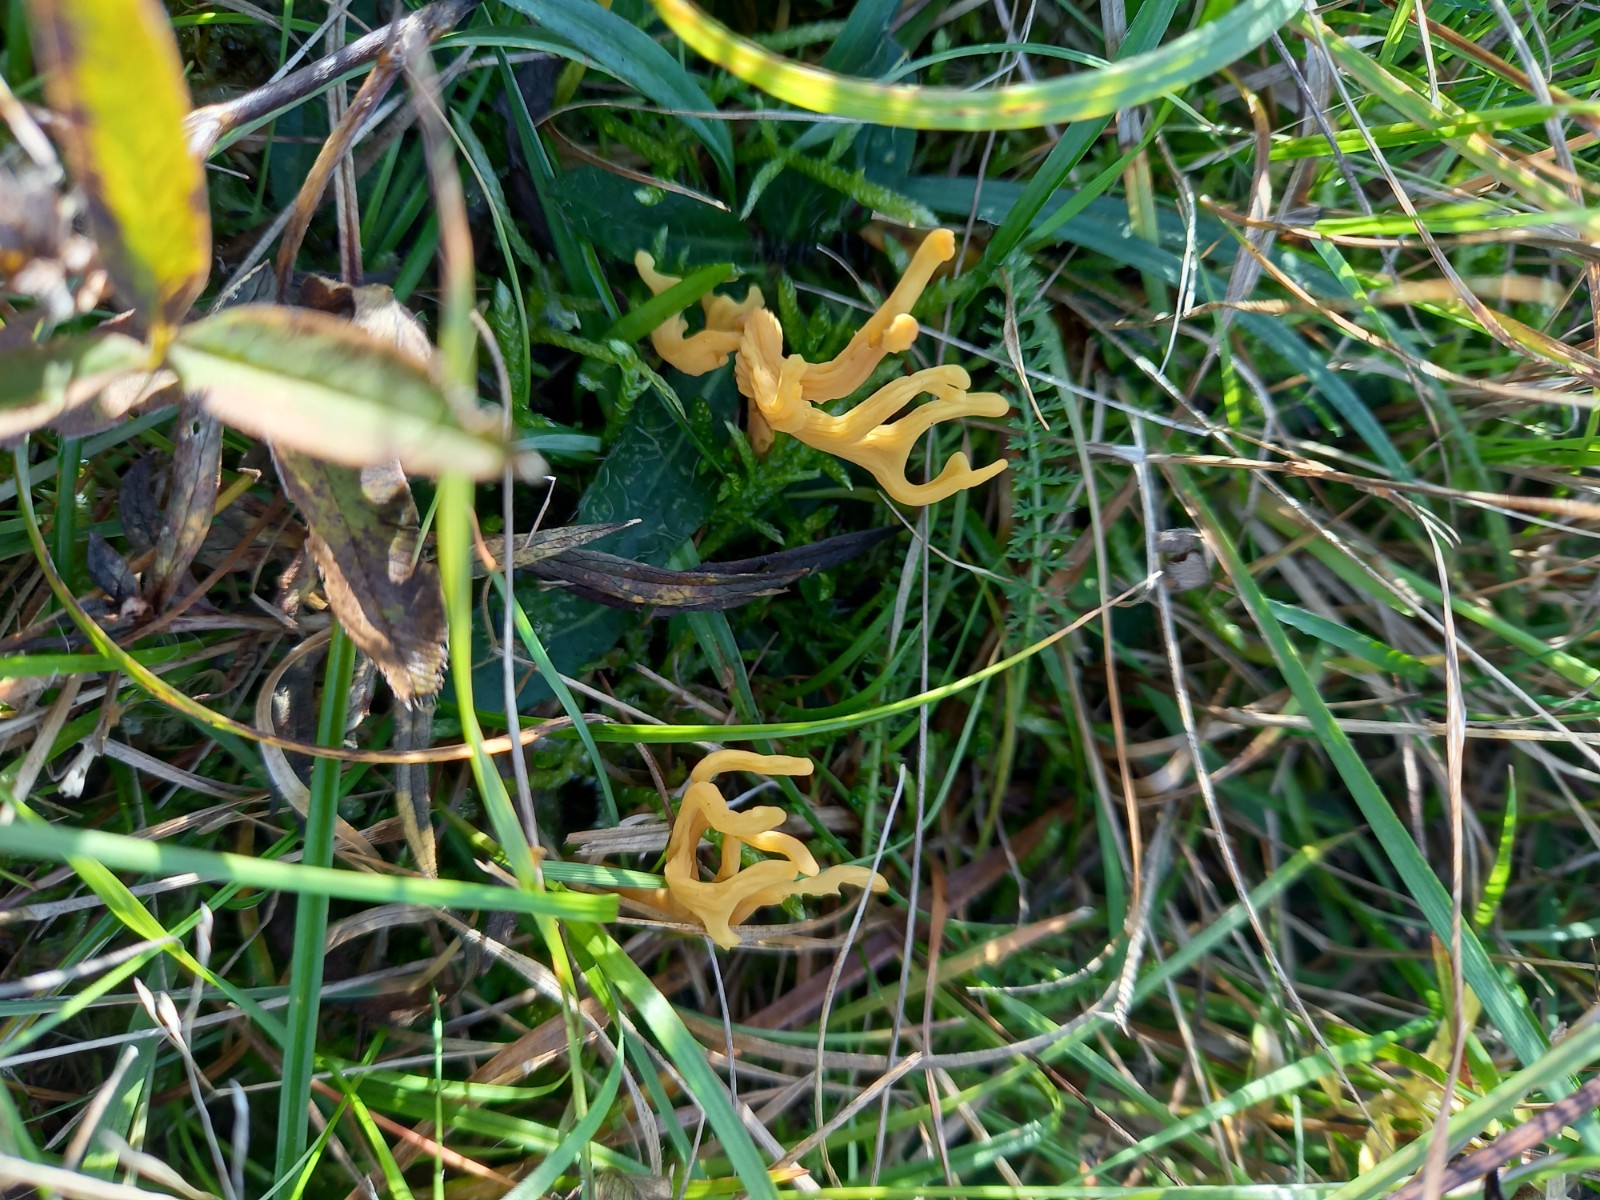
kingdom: Fungi
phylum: Basidiomycota
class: Agaricomycetes
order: Agaricales
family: Clavariaceae
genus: Clavulinopsis
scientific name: Clavulinopsis corniculata
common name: eng-køllesvamp
